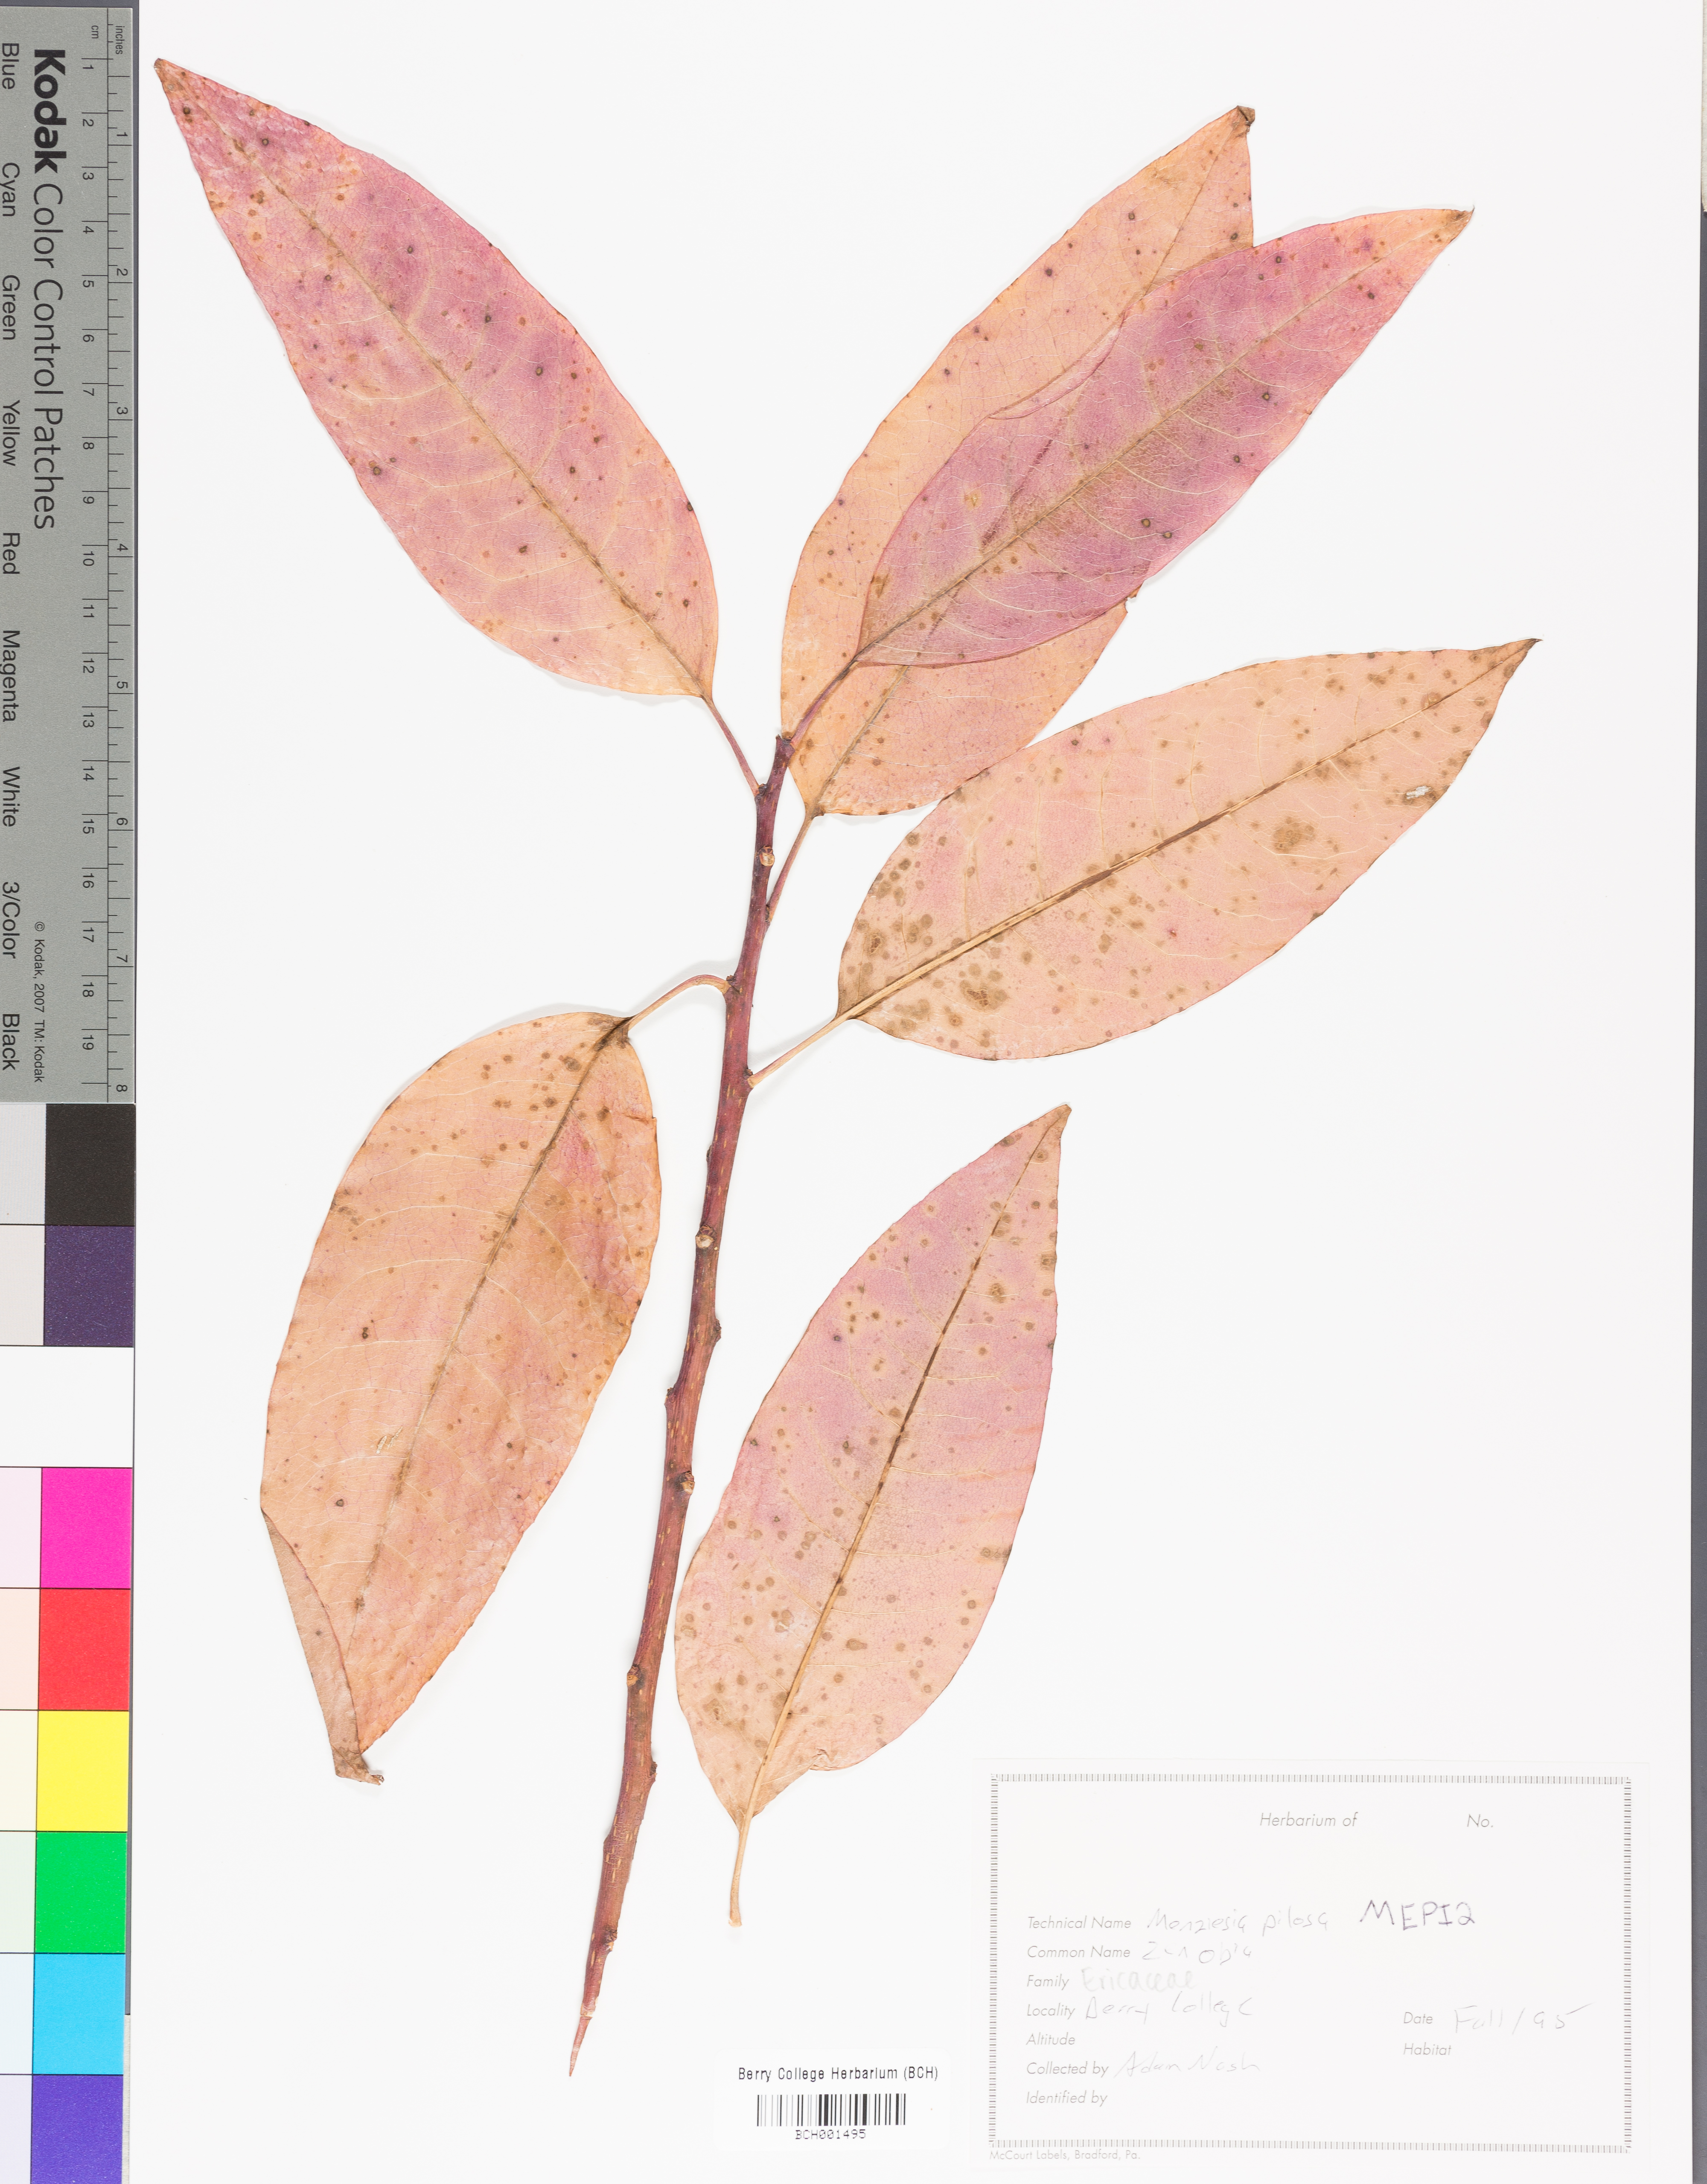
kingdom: Plantae
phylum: Tracheophyta
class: Magnoliopsida
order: Ericales
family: Ericaceae
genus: Rhododendron
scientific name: Rhododendron pilosum
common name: Hairy minniebush
